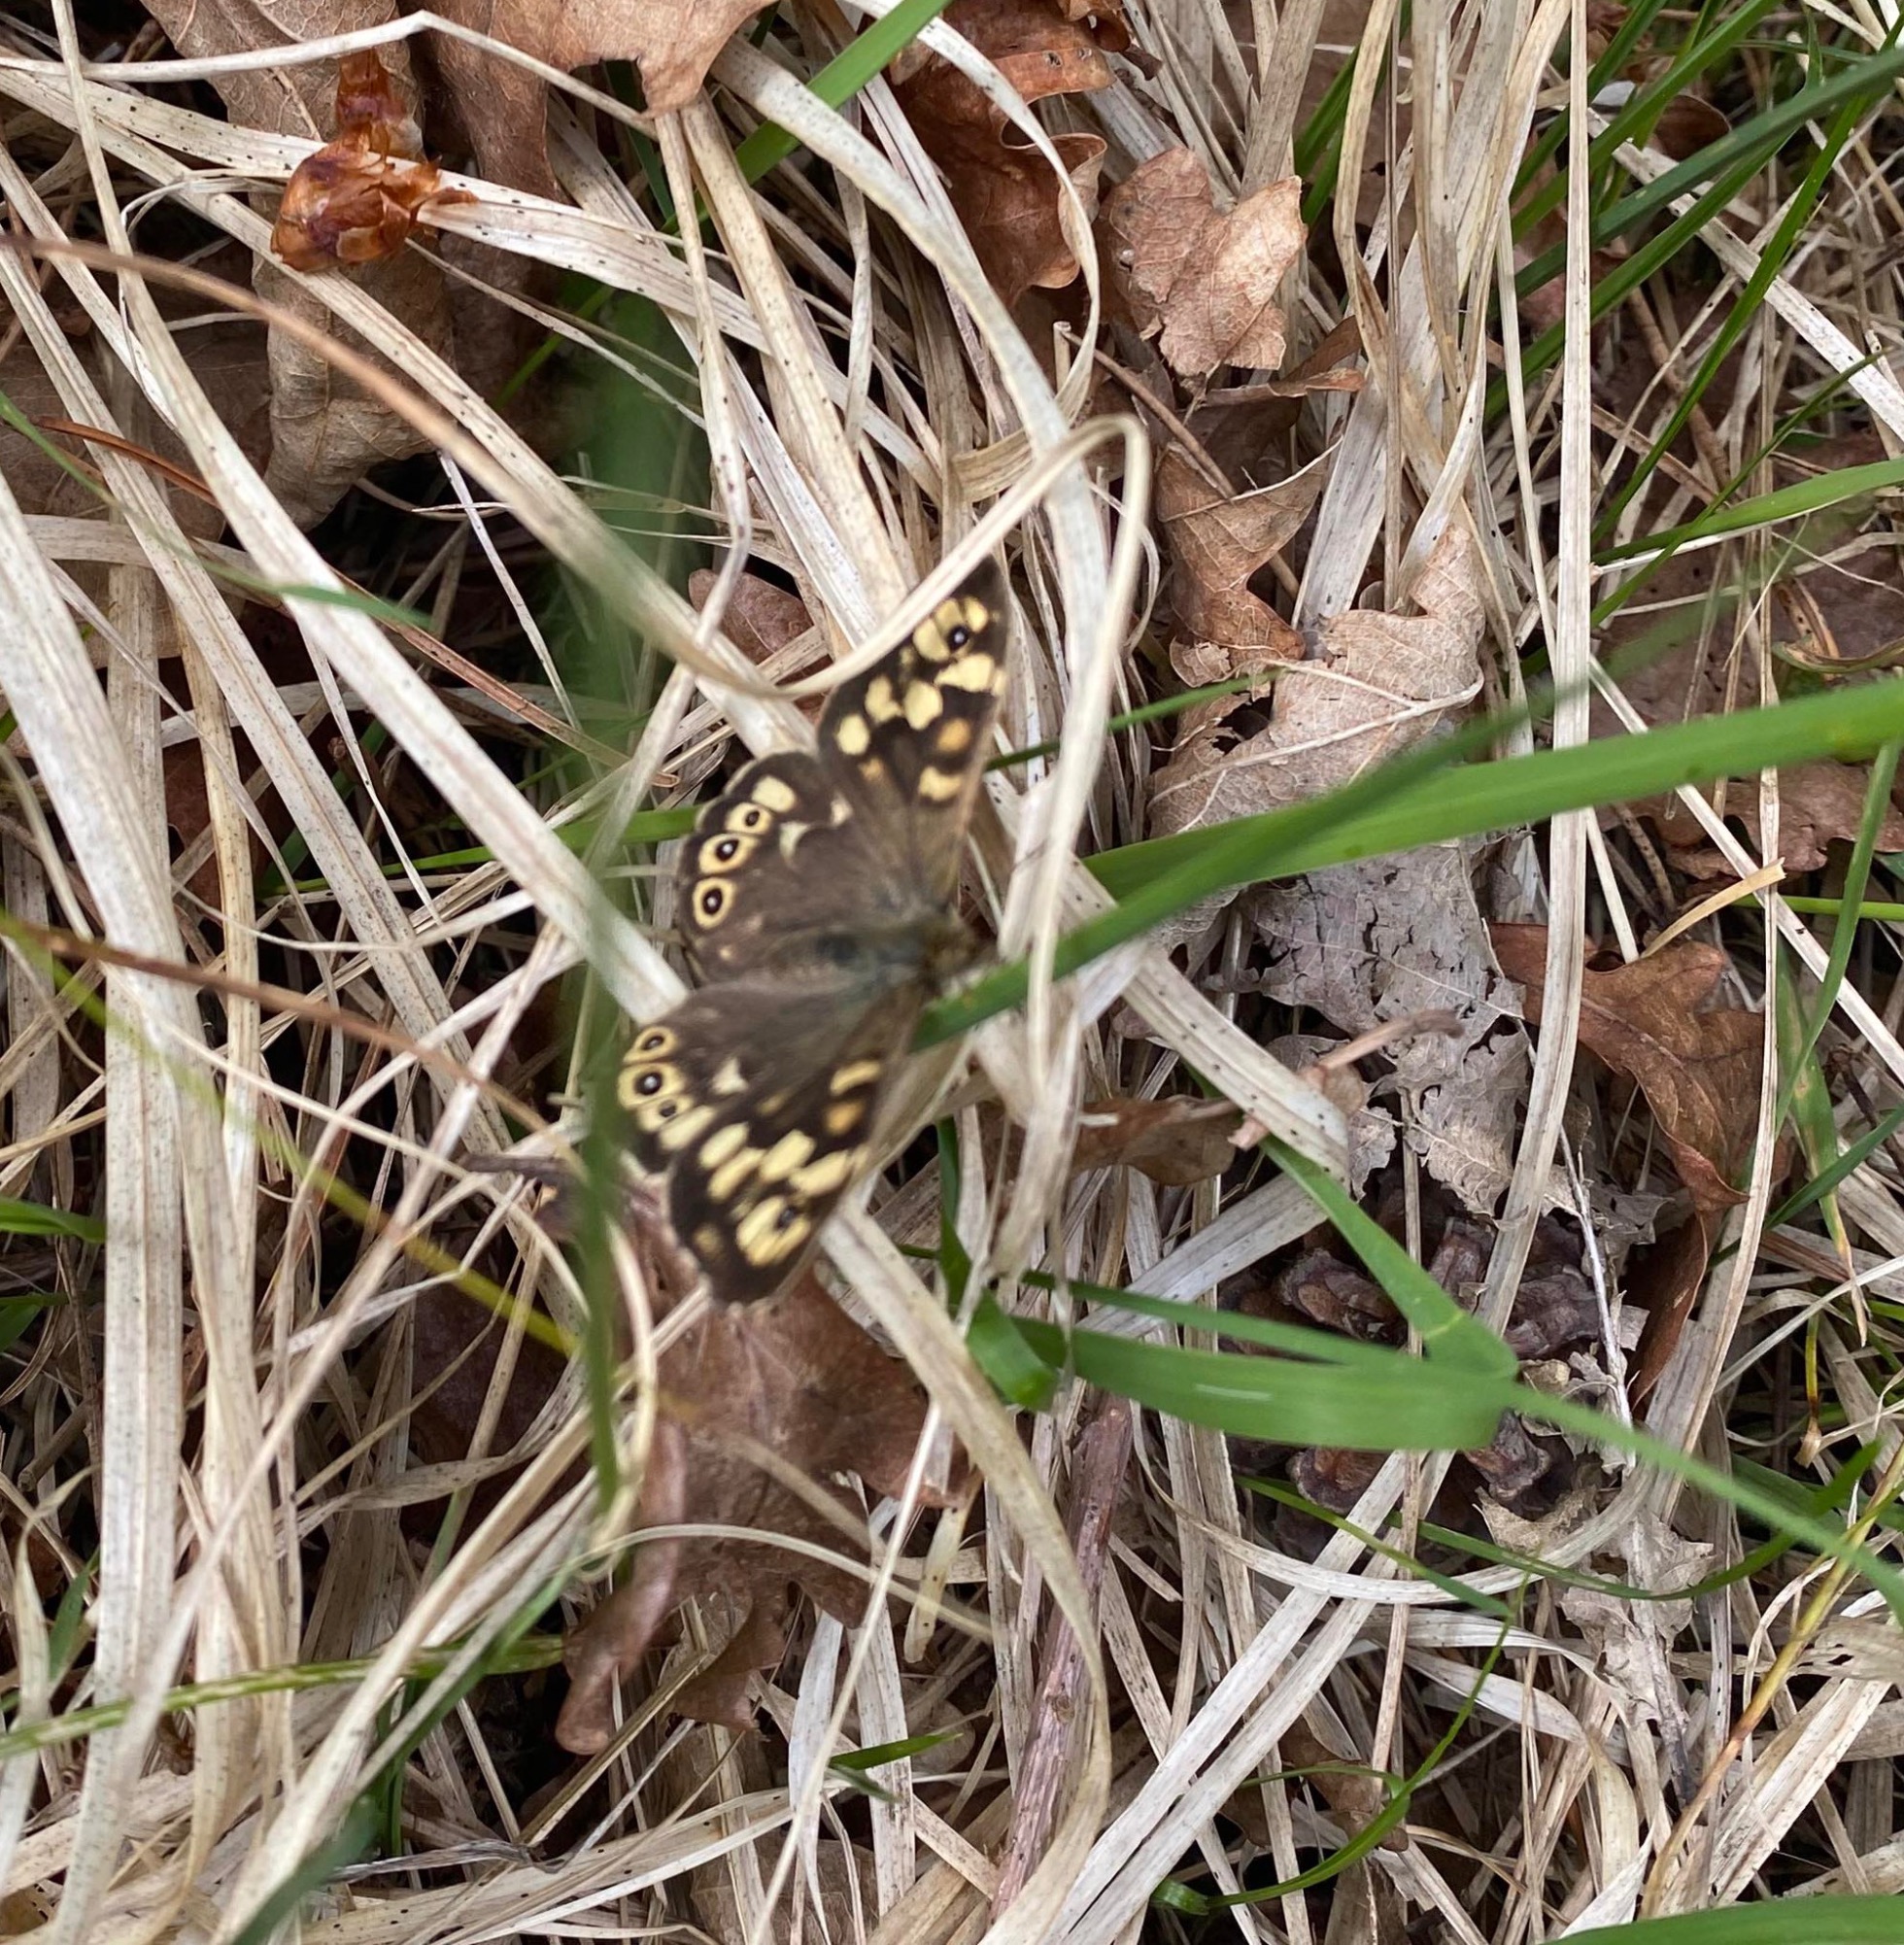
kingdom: Animalia
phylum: Arthropoda
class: Insecta
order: Lepidoptera
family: Nymphalidae
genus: Pararge
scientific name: Pararge aegeria
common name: Skovrandøje
